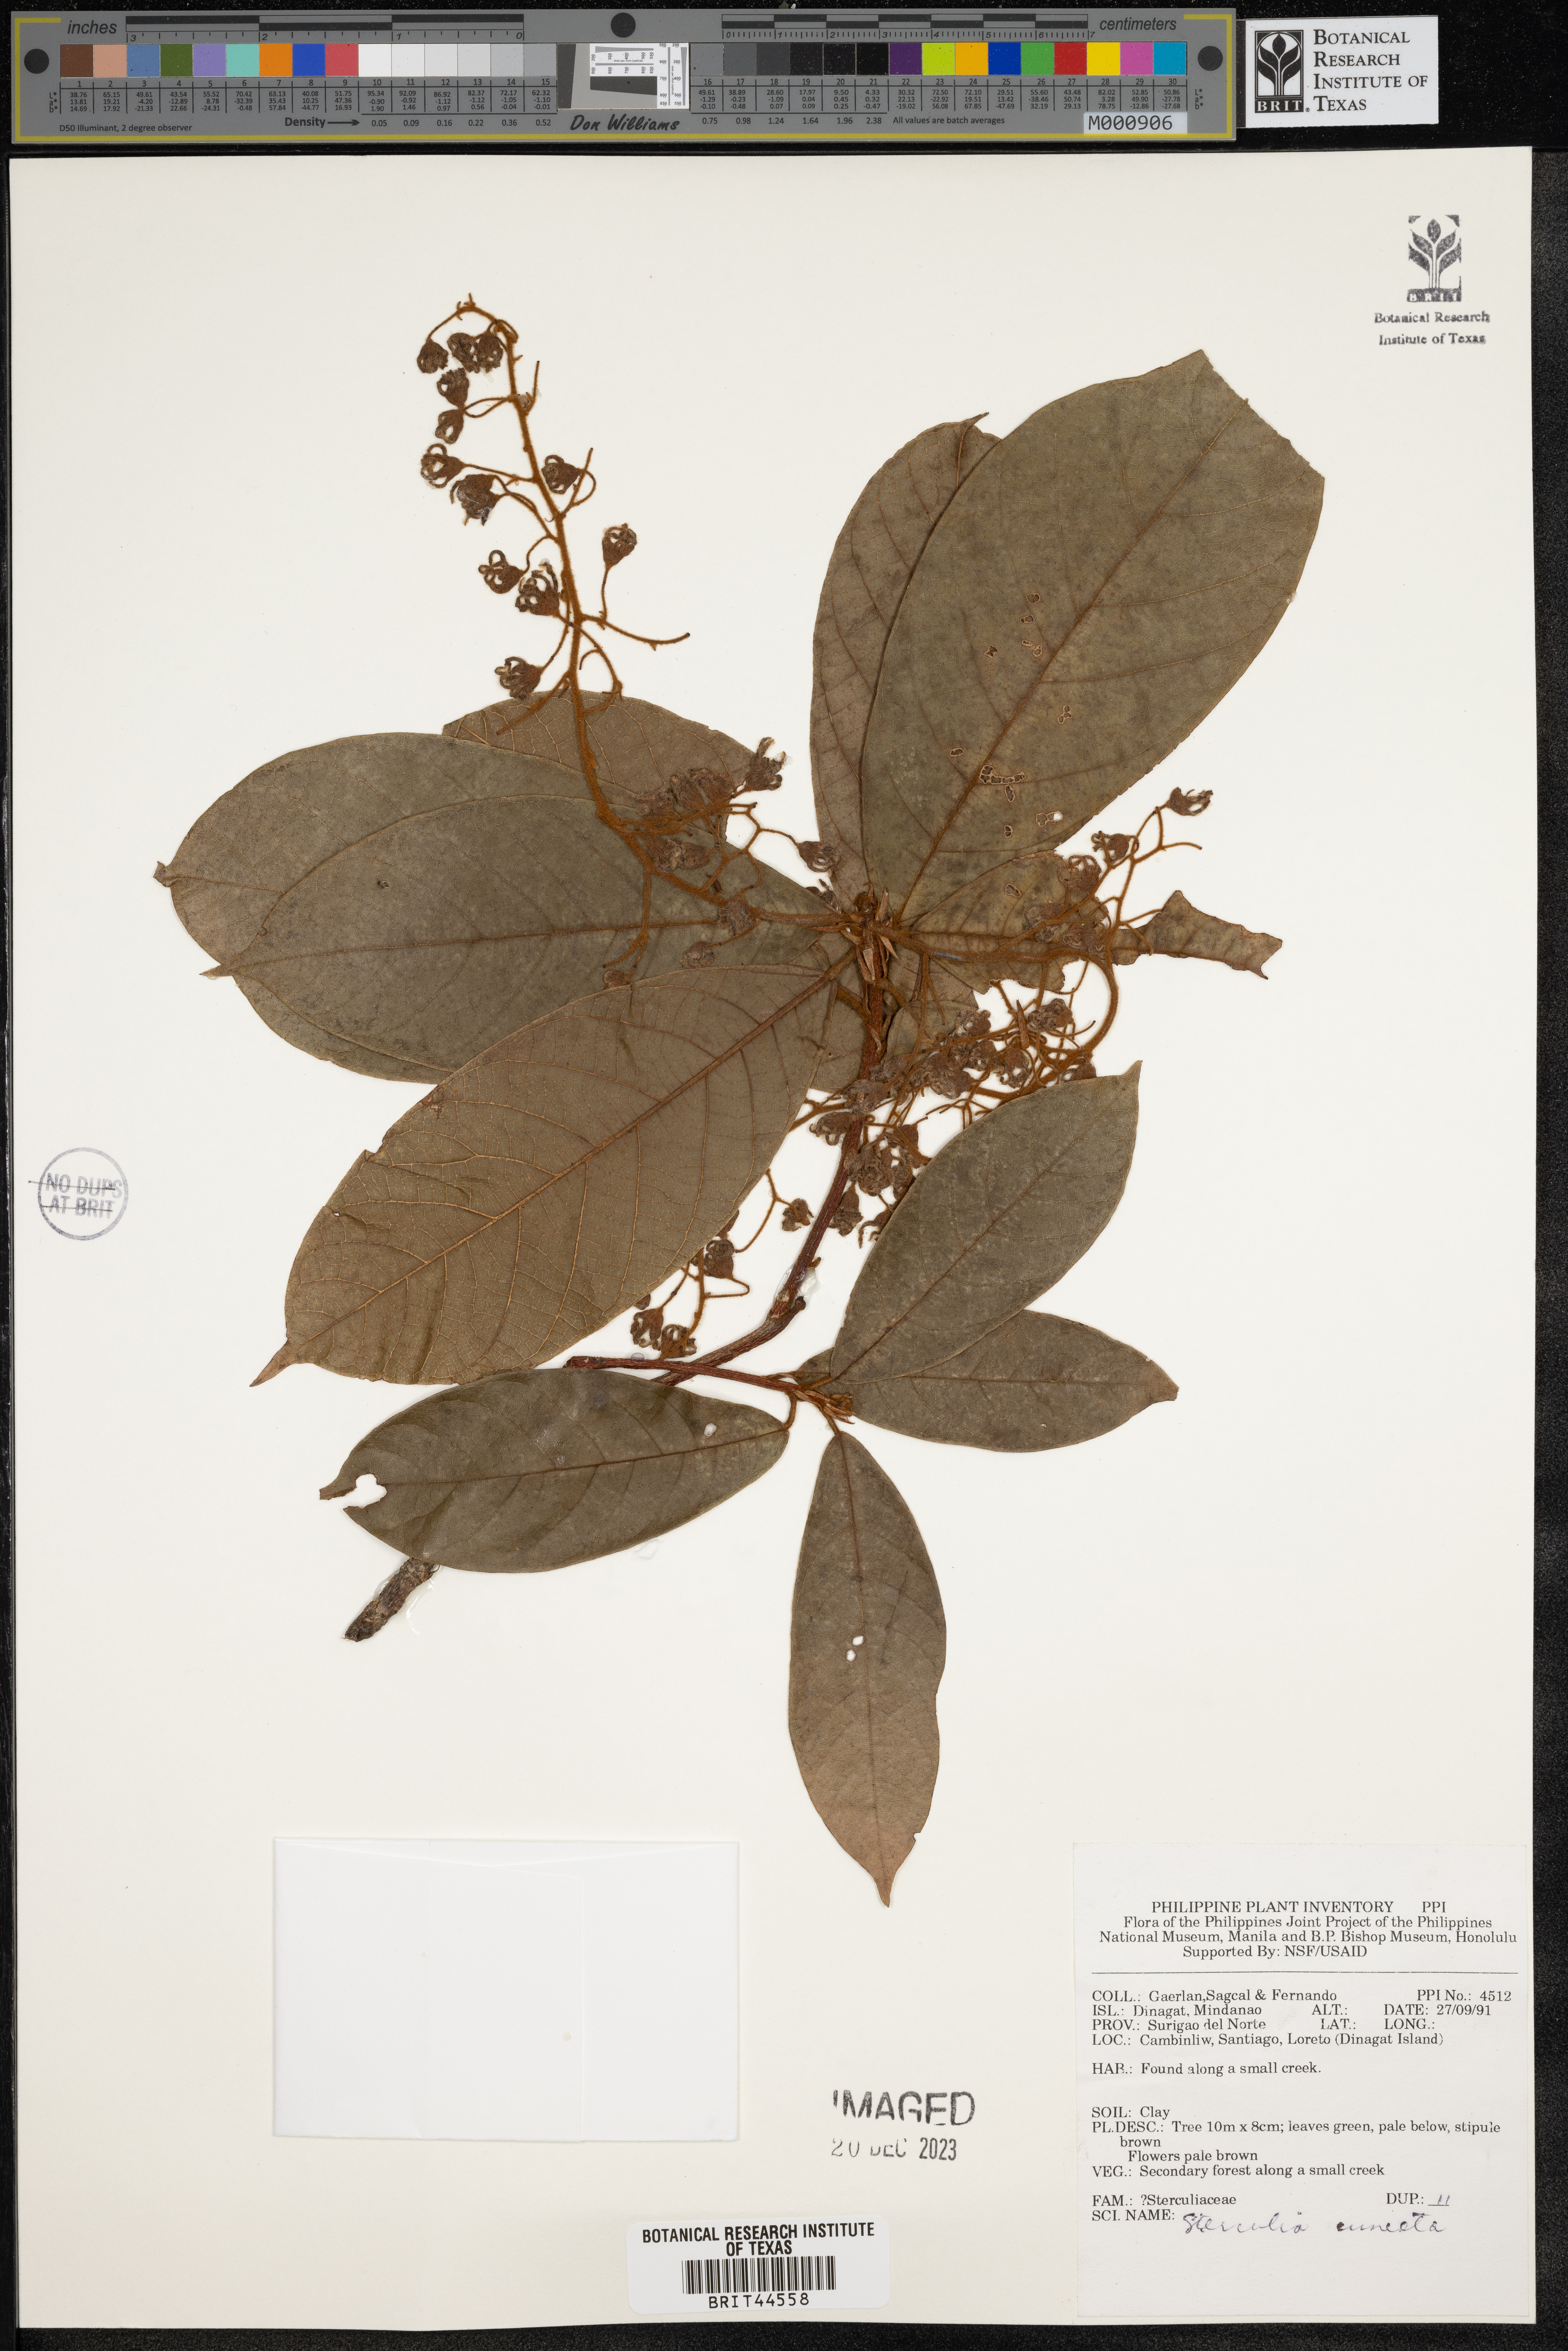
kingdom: Plantae
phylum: Tracheophyta
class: Magnoliopsida
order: Malvales
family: Malvaceae
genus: Sterculia
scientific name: Sterculia cuneata
